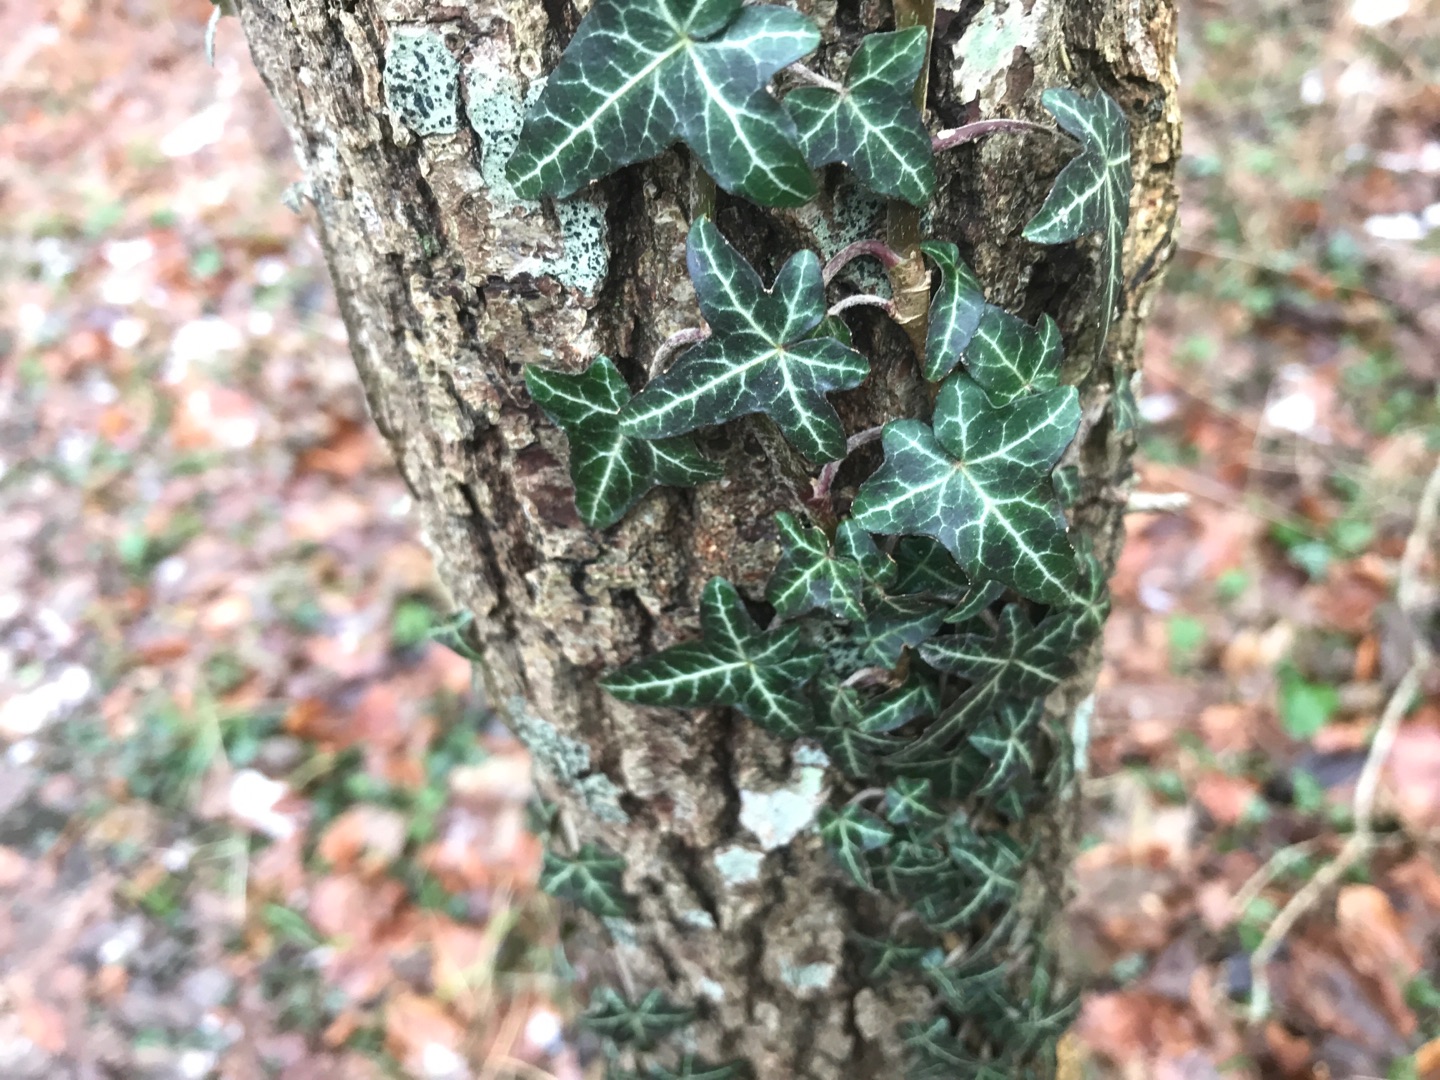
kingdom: Plantae
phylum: Tracheophyta
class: Magnoliopsida
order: Apiales
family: Araliaceae
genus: Hedera
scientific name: Hedera helix
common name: Vedbend
